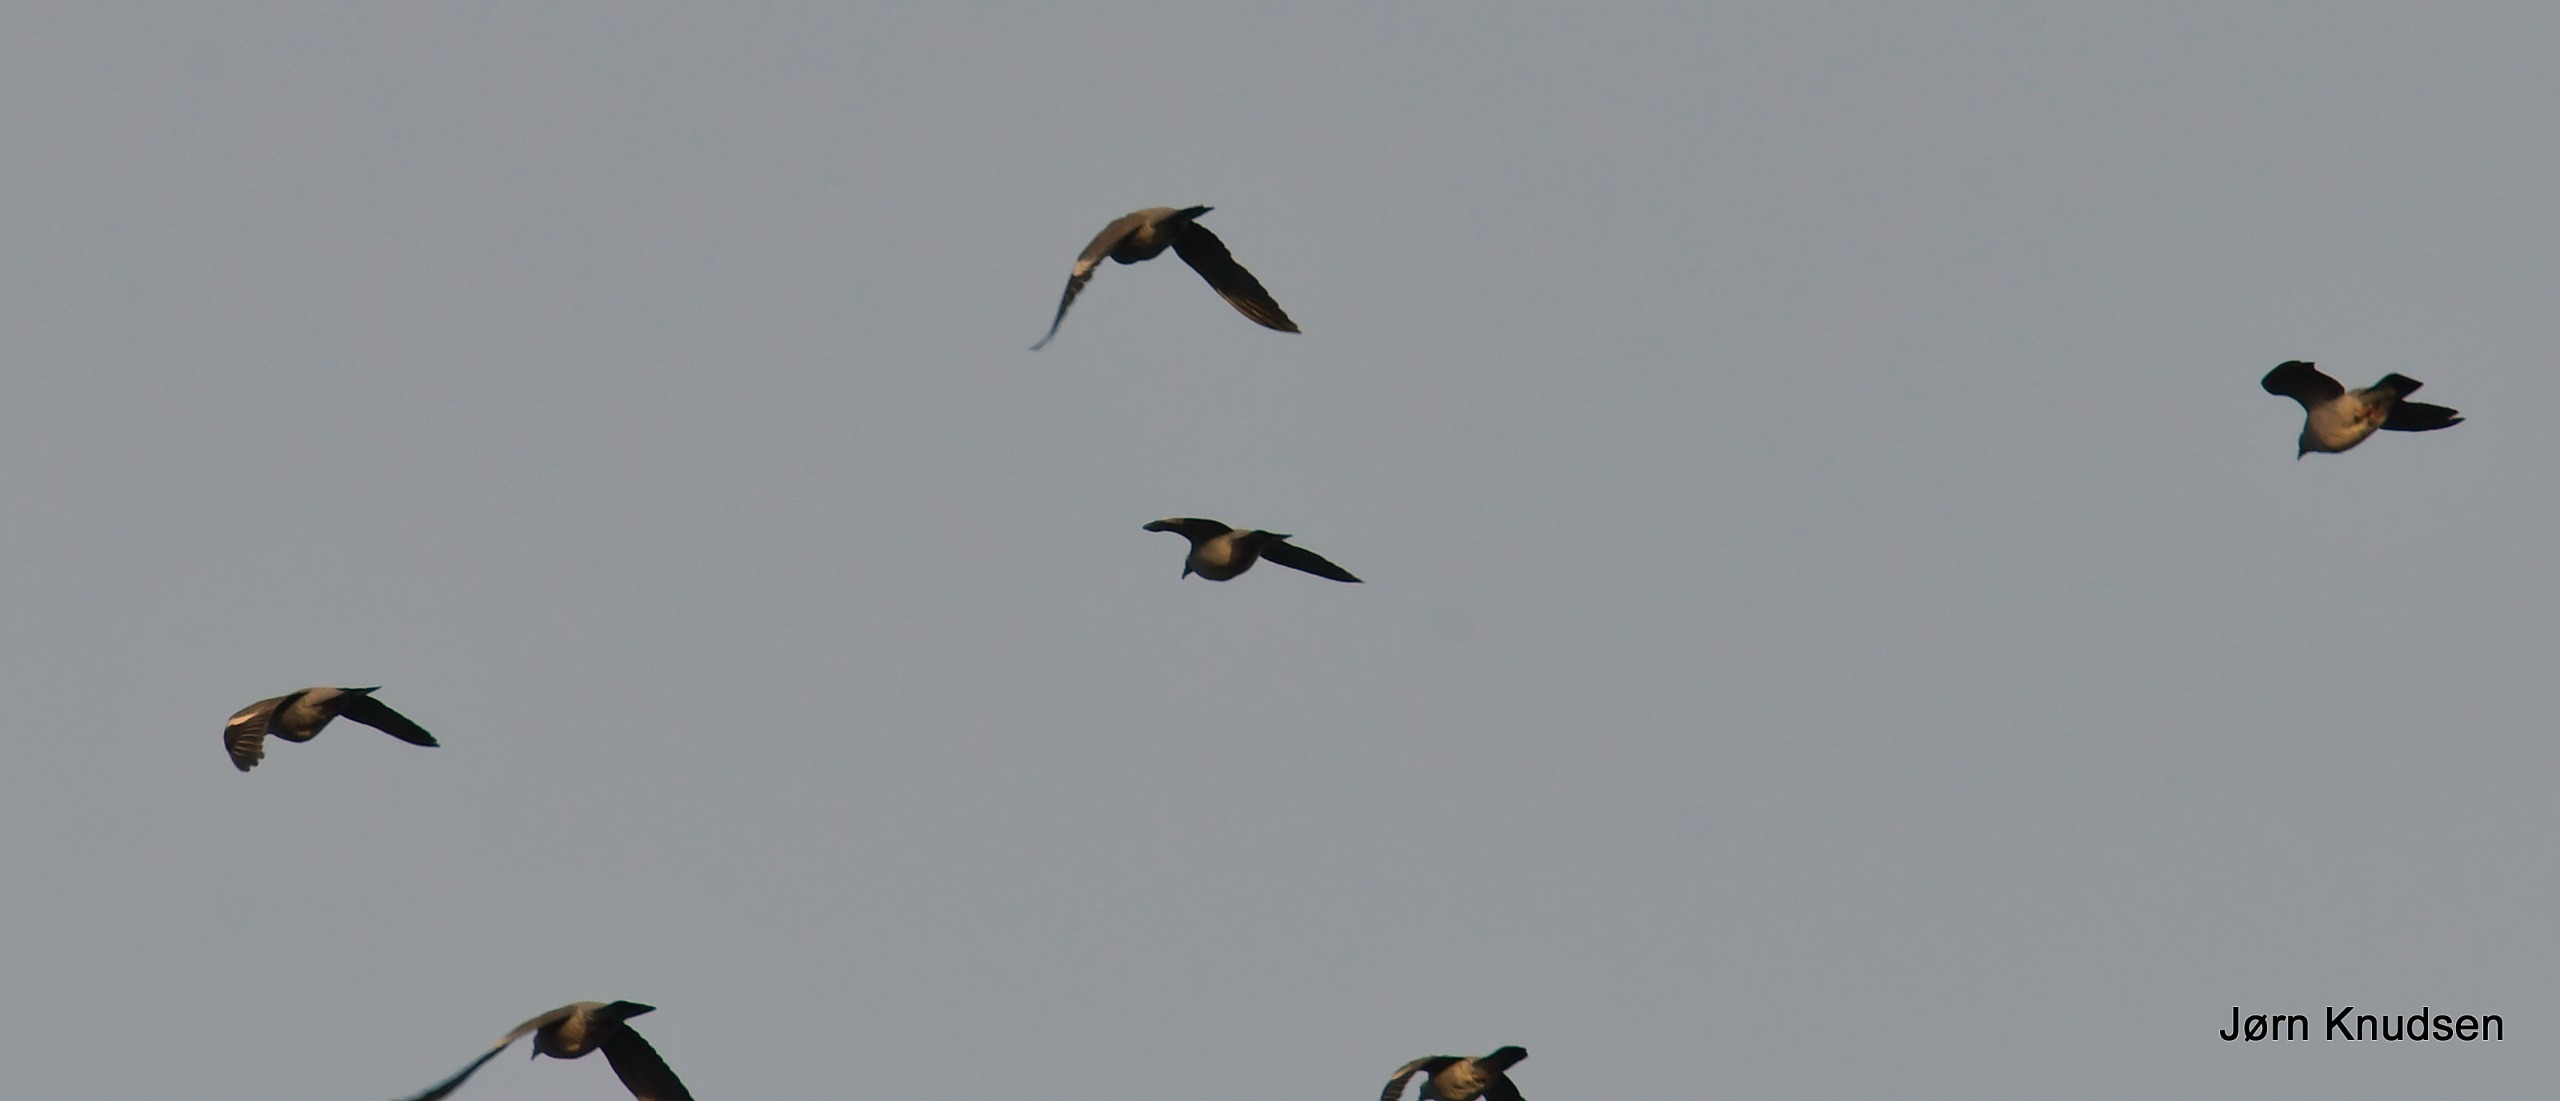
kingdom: Animalia
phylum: Chordata
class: Aves
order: Columbiformes
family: Columbidae
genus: Columba
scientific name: Columba palumbus
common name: Ringdue
